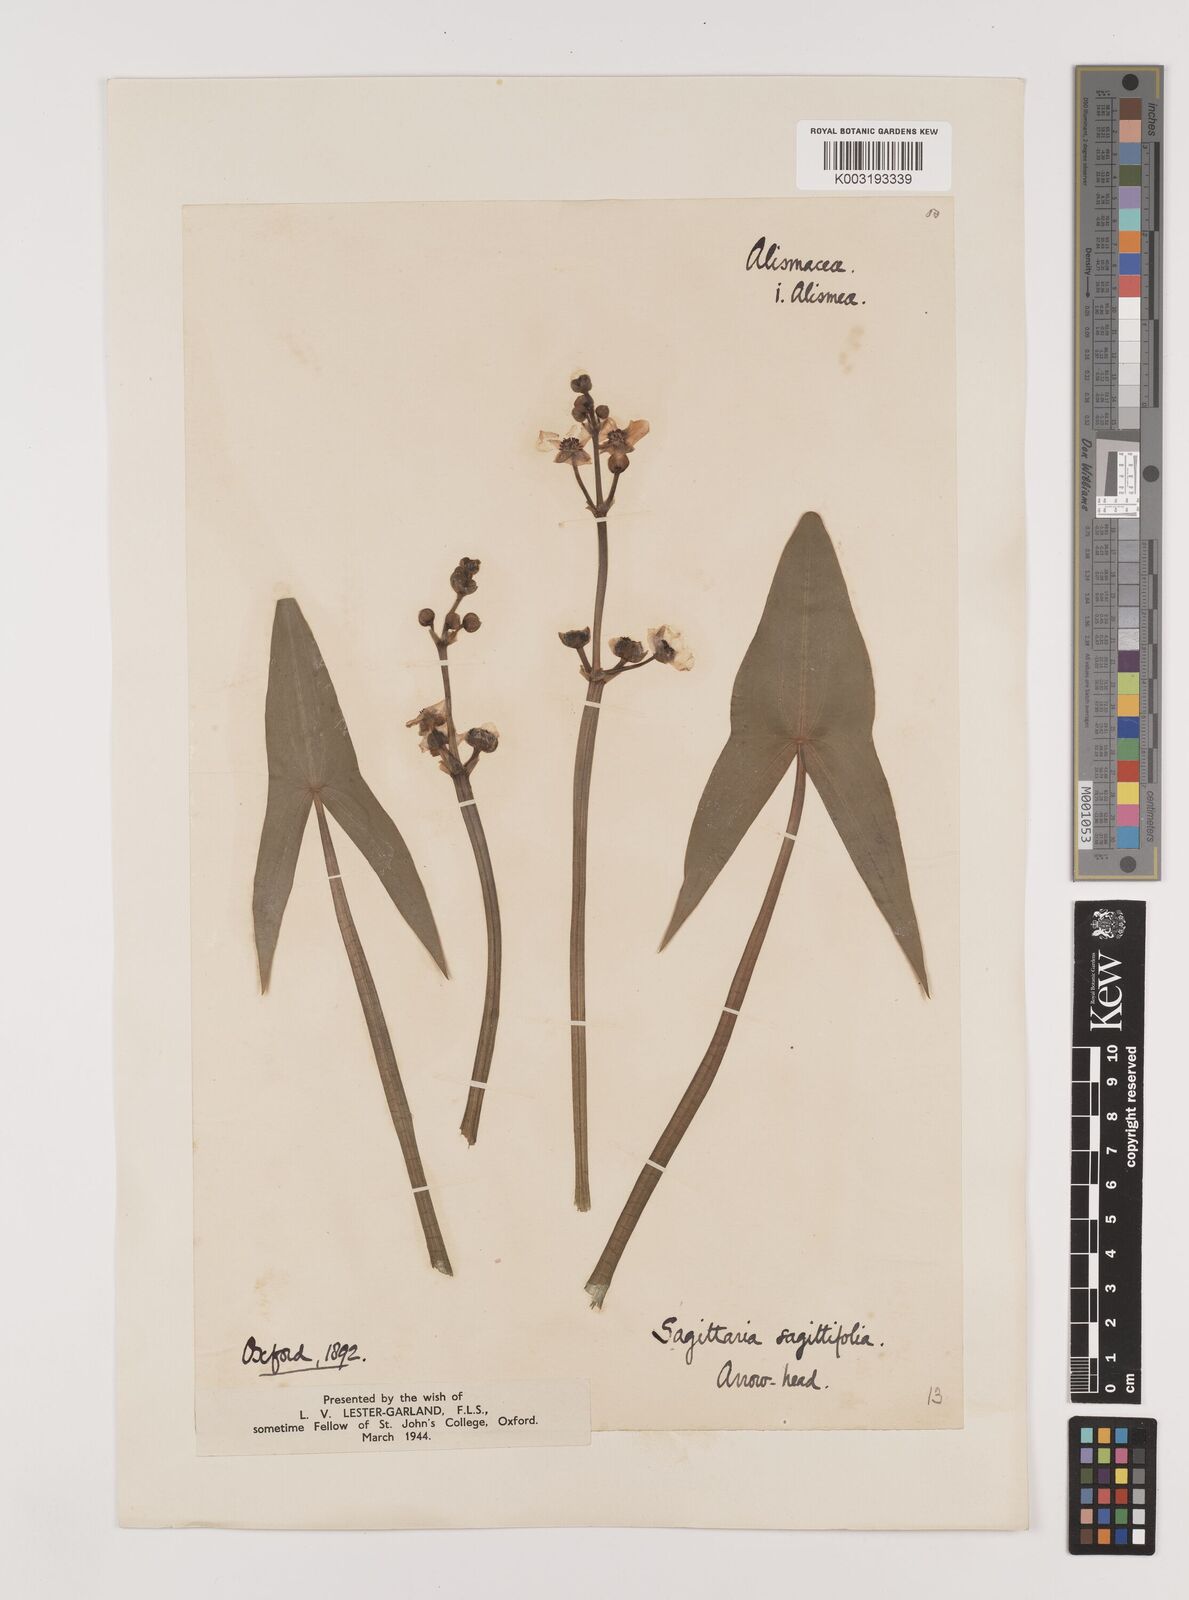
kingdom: Plantae
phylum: Tracheophyta
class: Liliopsida
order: Alismatales
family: Alismataceae
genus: Sagittaria
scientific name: Sagittaria sagittifolia
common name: Arrowhead
